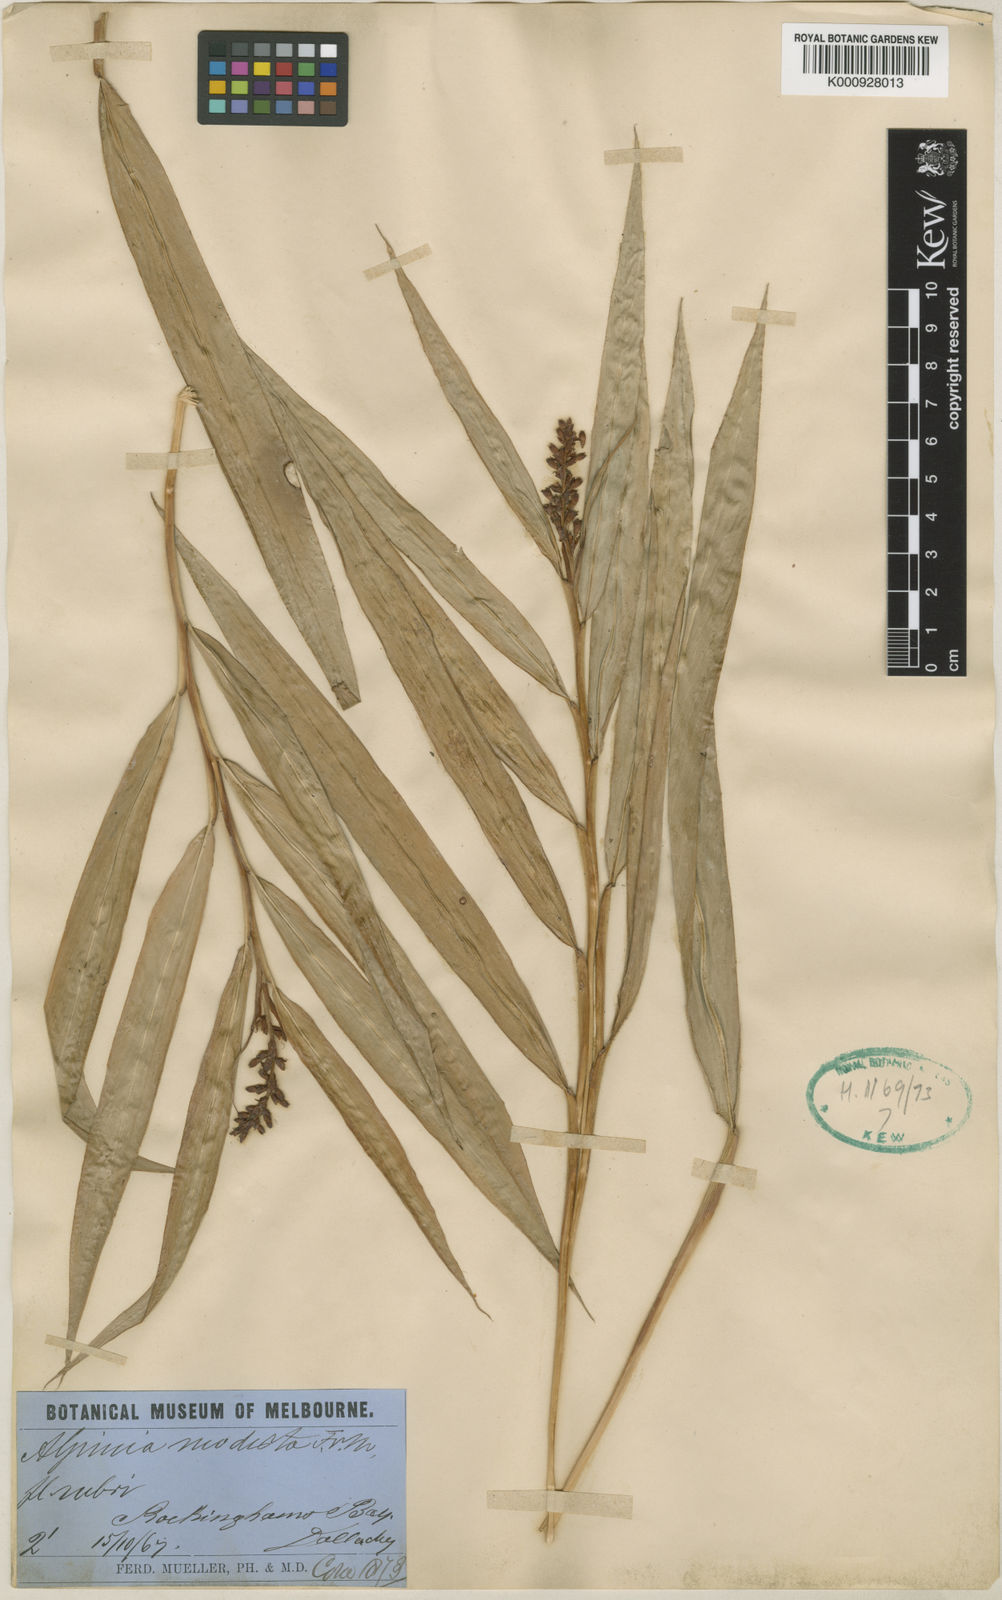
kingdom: Plantae
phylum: Tracheophyta
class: Liliopsida
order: Zingiberales
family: Zingiberaceae
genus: Alpinia
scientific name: Alpinia modesta
